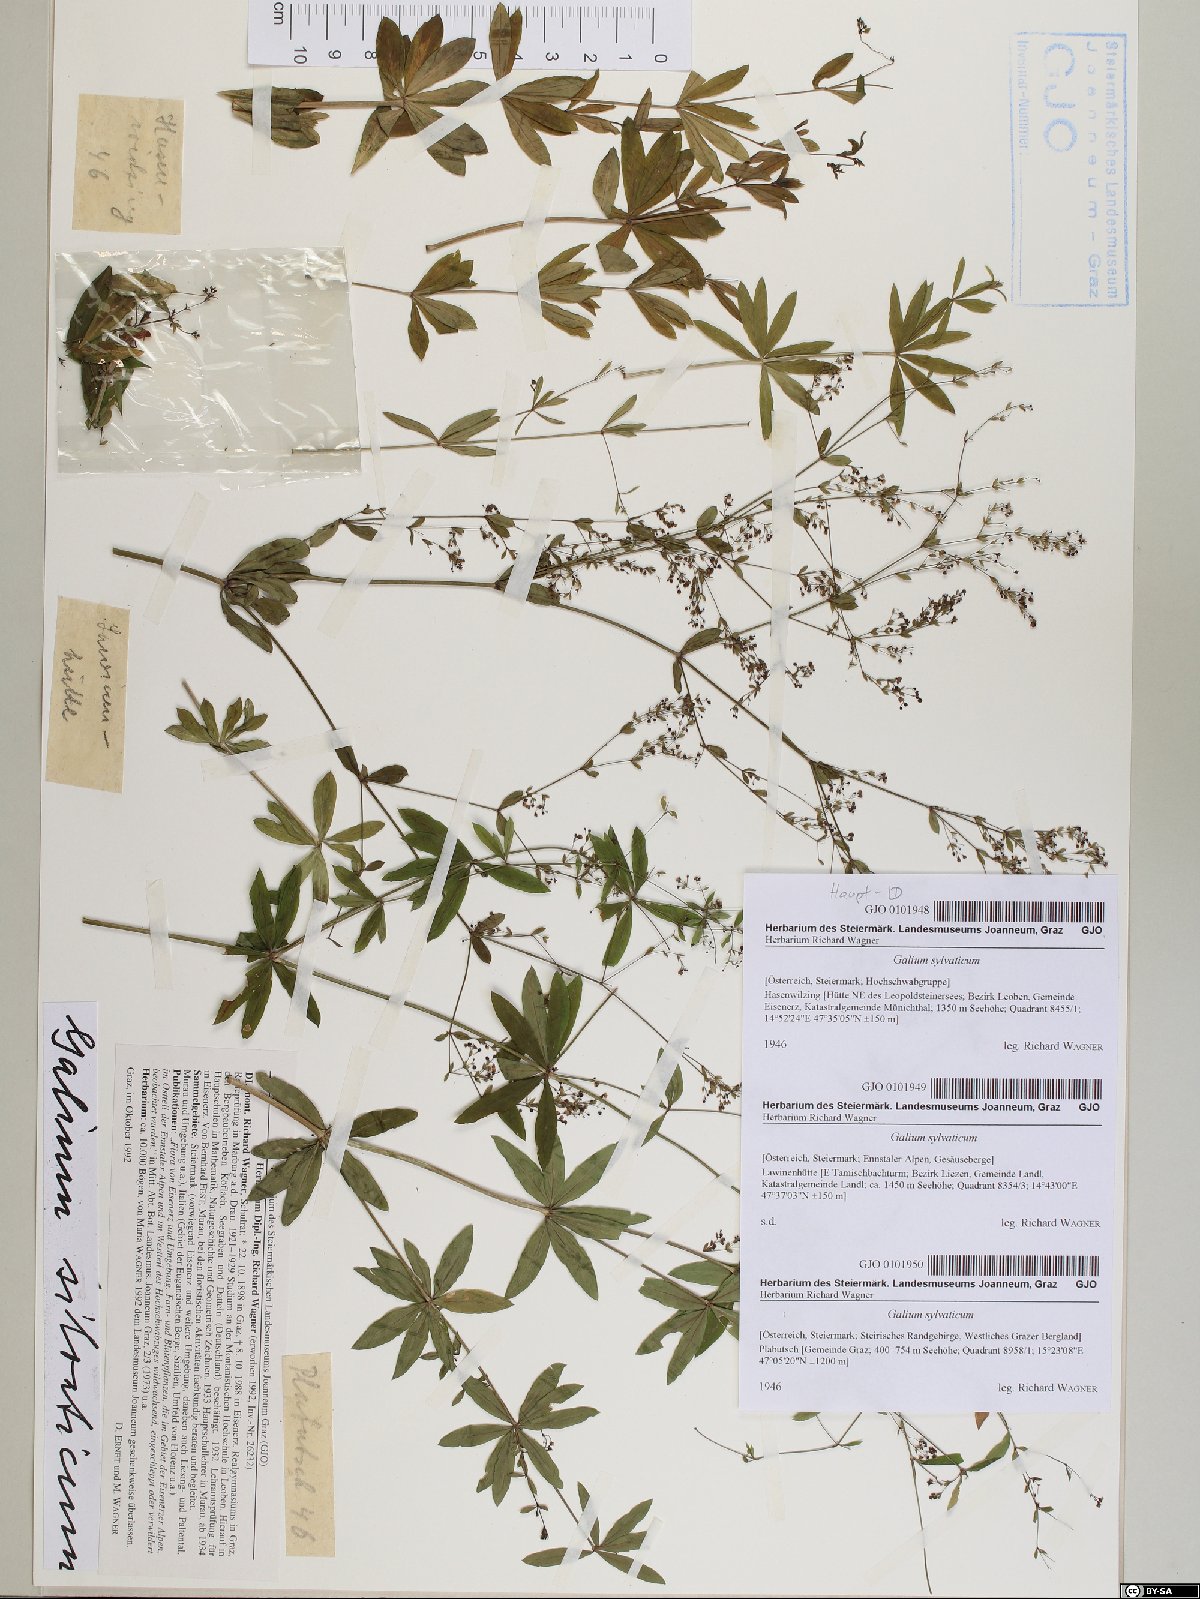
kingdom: Plantae
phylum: Tracheophyta
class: Magnoliopsida
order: Gentianales
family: Rubiaceae
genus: Galium
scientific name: Galium sylvaticum
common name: Wood bedstraw
